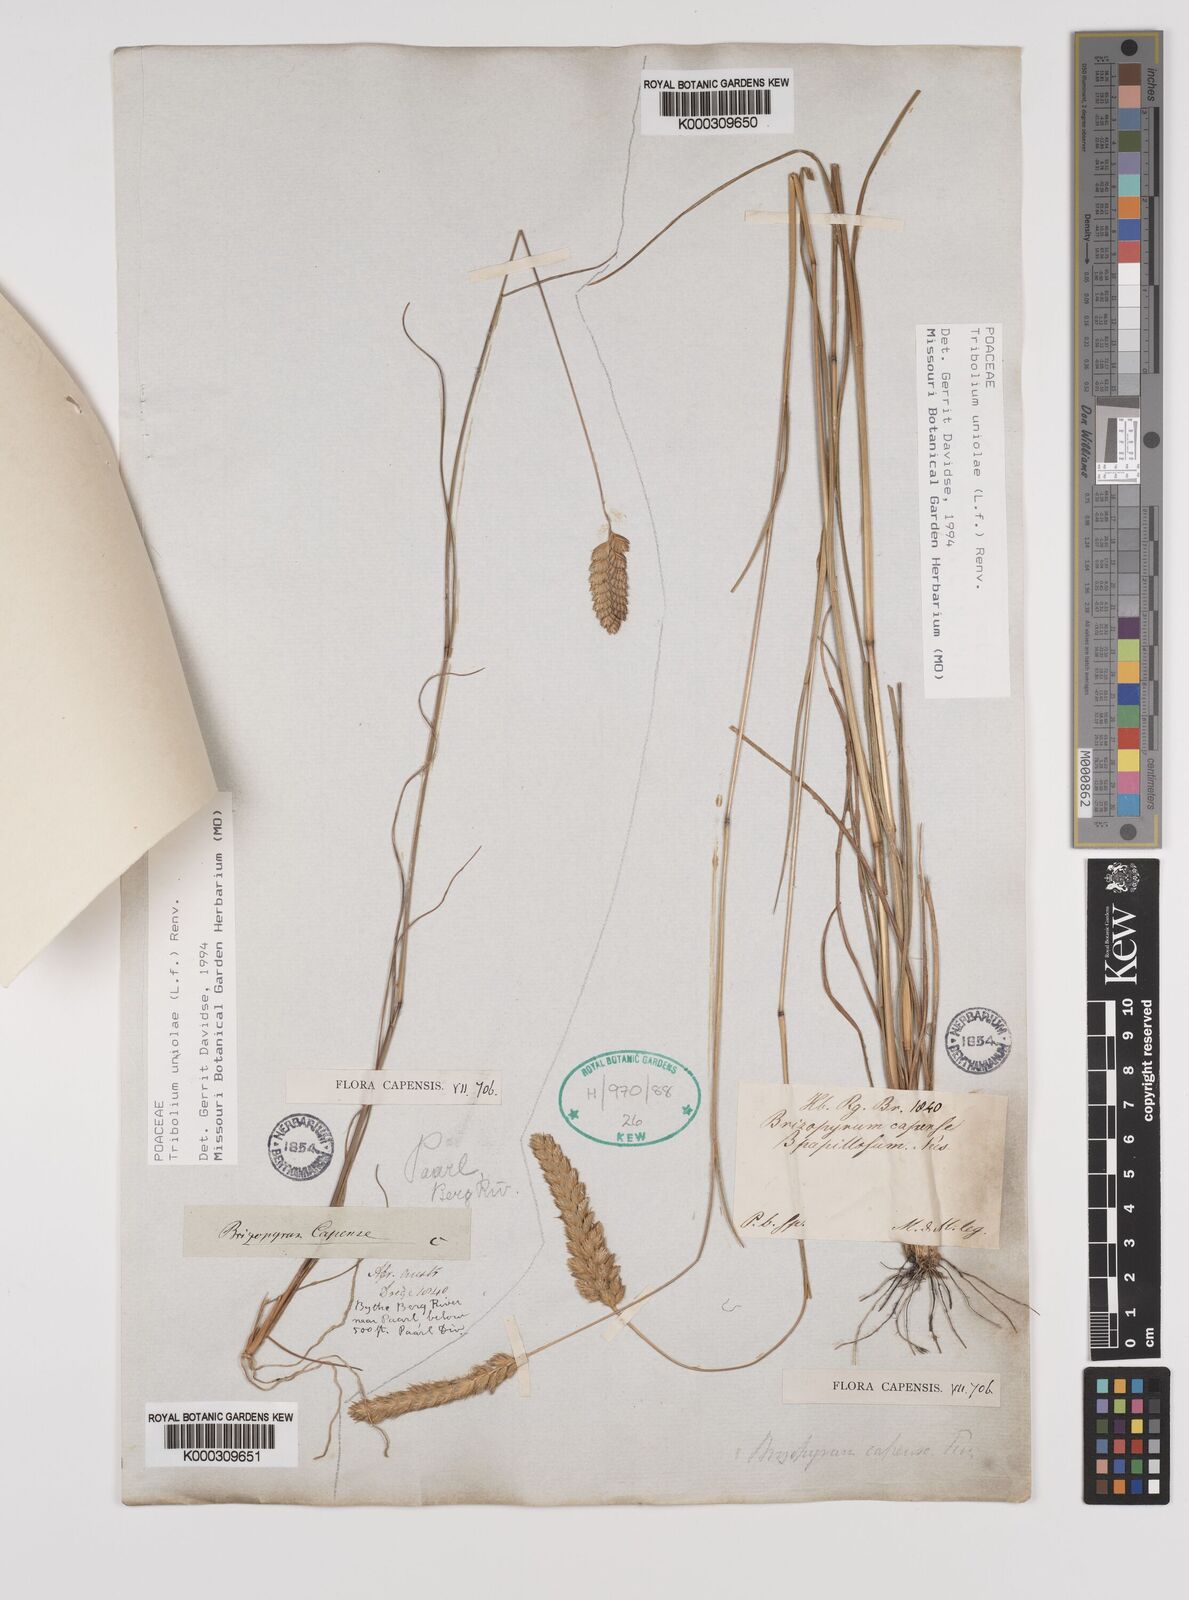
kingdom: Plantae
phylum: Tracheophyta
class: Liliopsida
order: Poales
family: Poaceae
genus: Tribolium
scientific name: Tribolium uniolae
